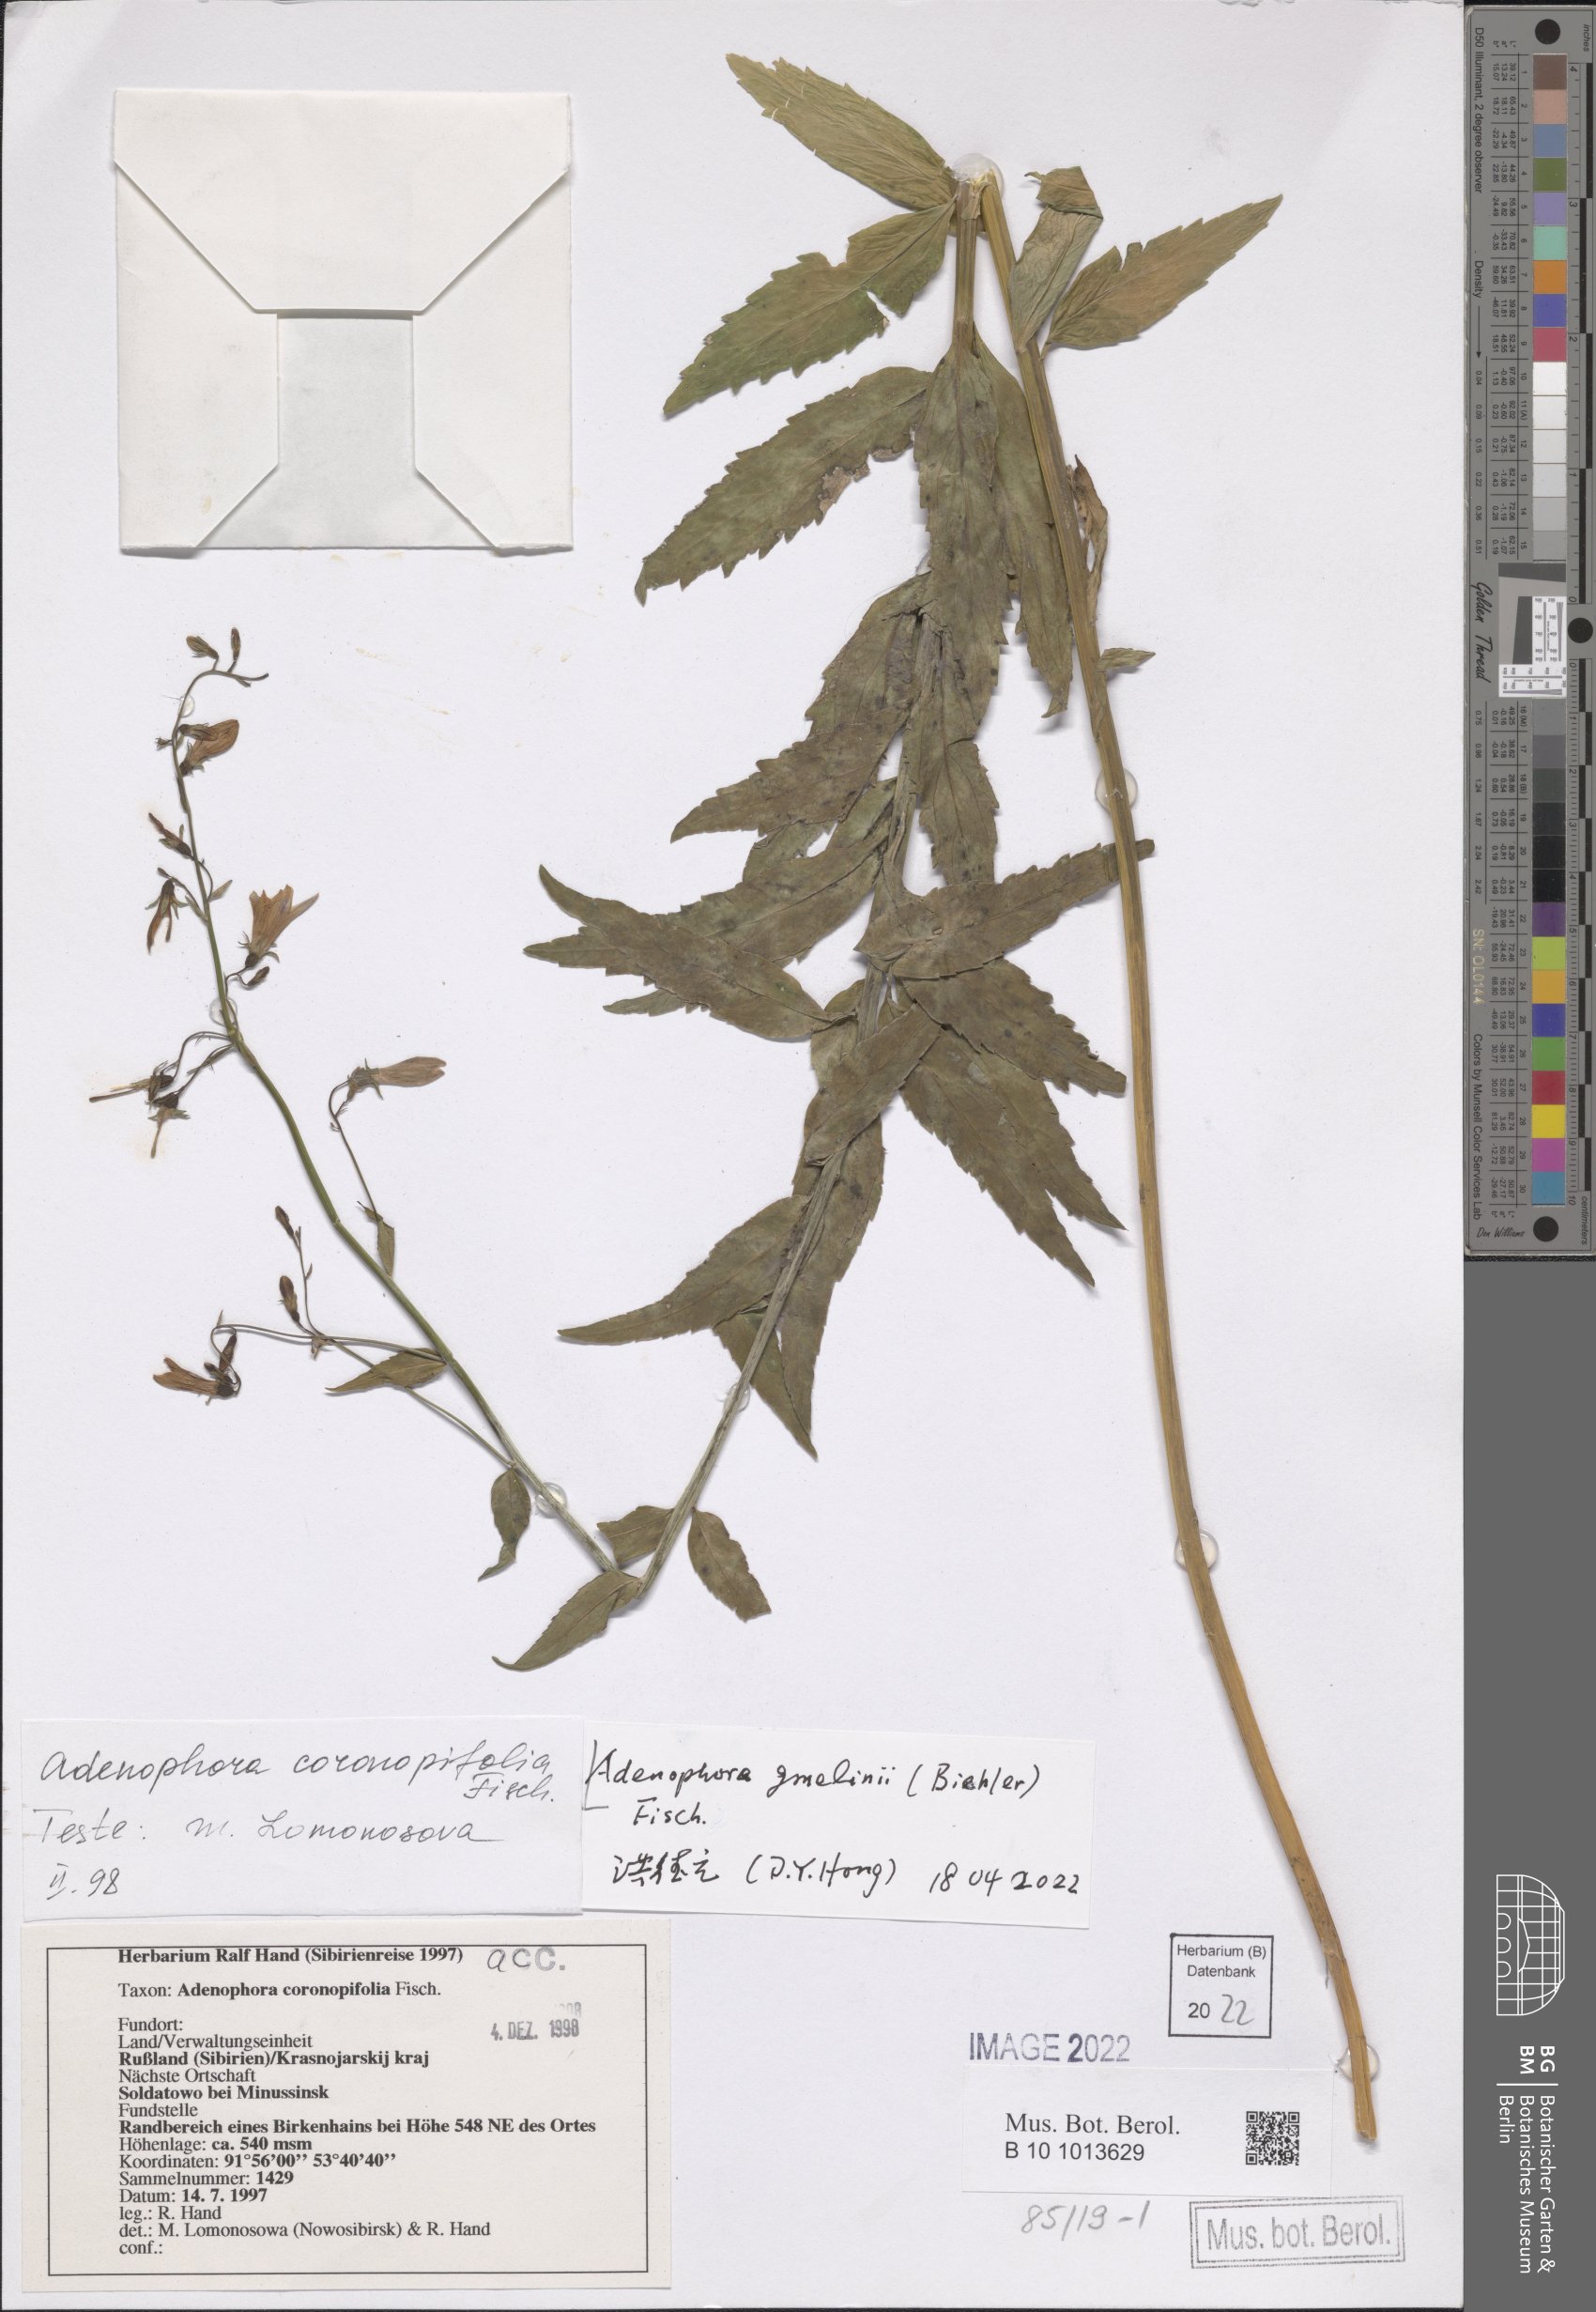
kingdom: Plantae
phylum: Tracheophyta
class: Magnoliopsida
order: Asterales
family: Campanulaceae
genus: Adenophora
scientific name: Adenophora gmelinii
